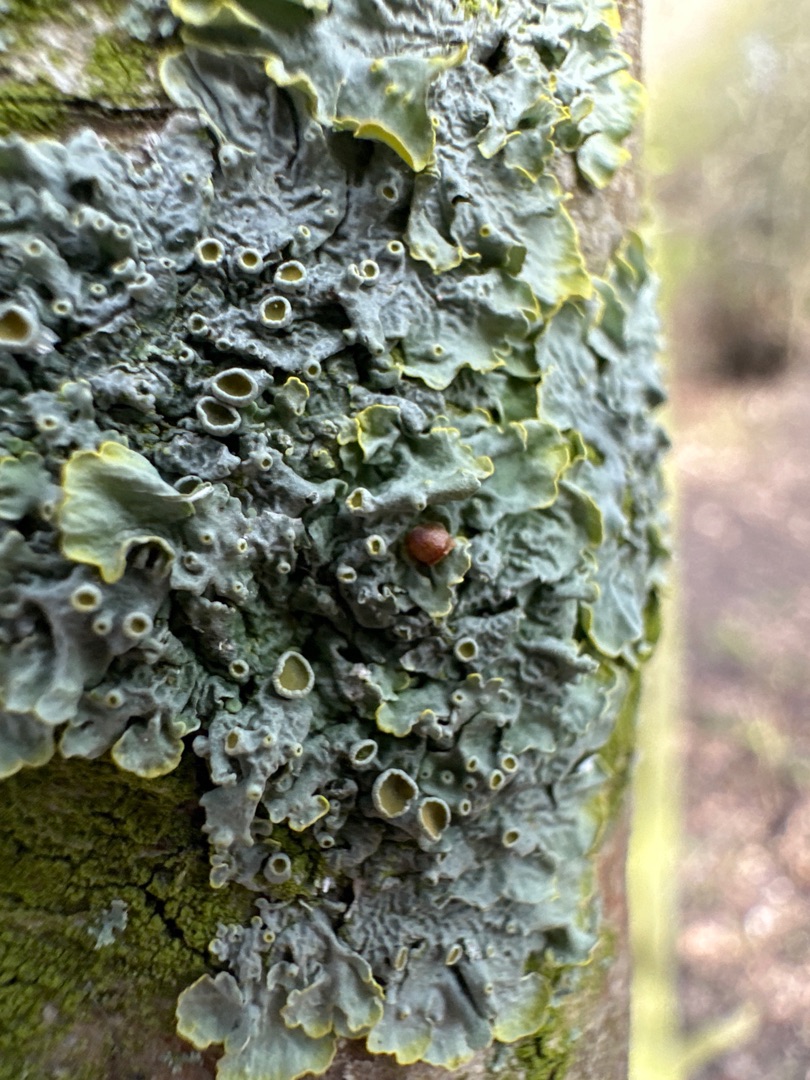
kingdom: Fungi
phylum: Ascomycota
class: Lecanoromycetes
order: Teloschistales
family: Teloschistaceae
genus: Xanthoria
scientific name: Xanthoria parietina
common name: Almindelig væggelav
